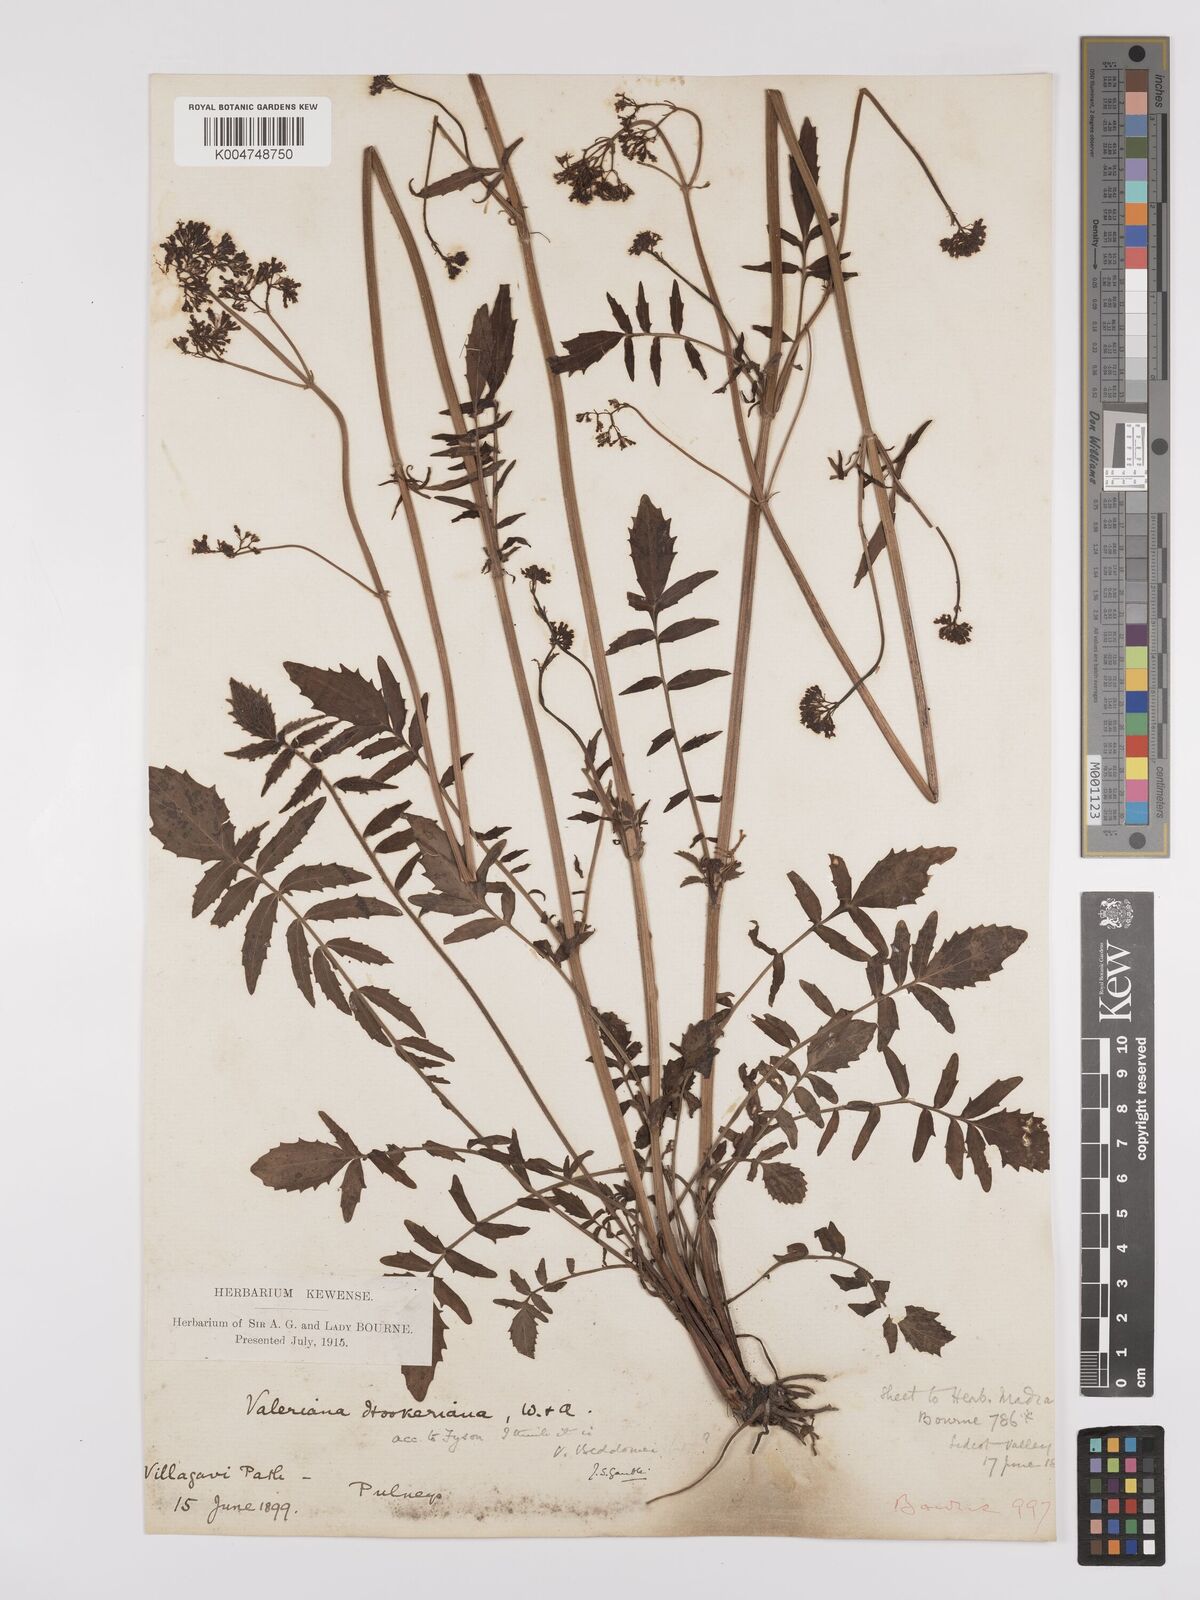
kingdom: Plantae
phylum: Tracheophyta
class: Magnoliopsida
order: Dipsacales
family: Caprifoliaceae
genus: Valeriana
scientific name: Valeriana beddomei
